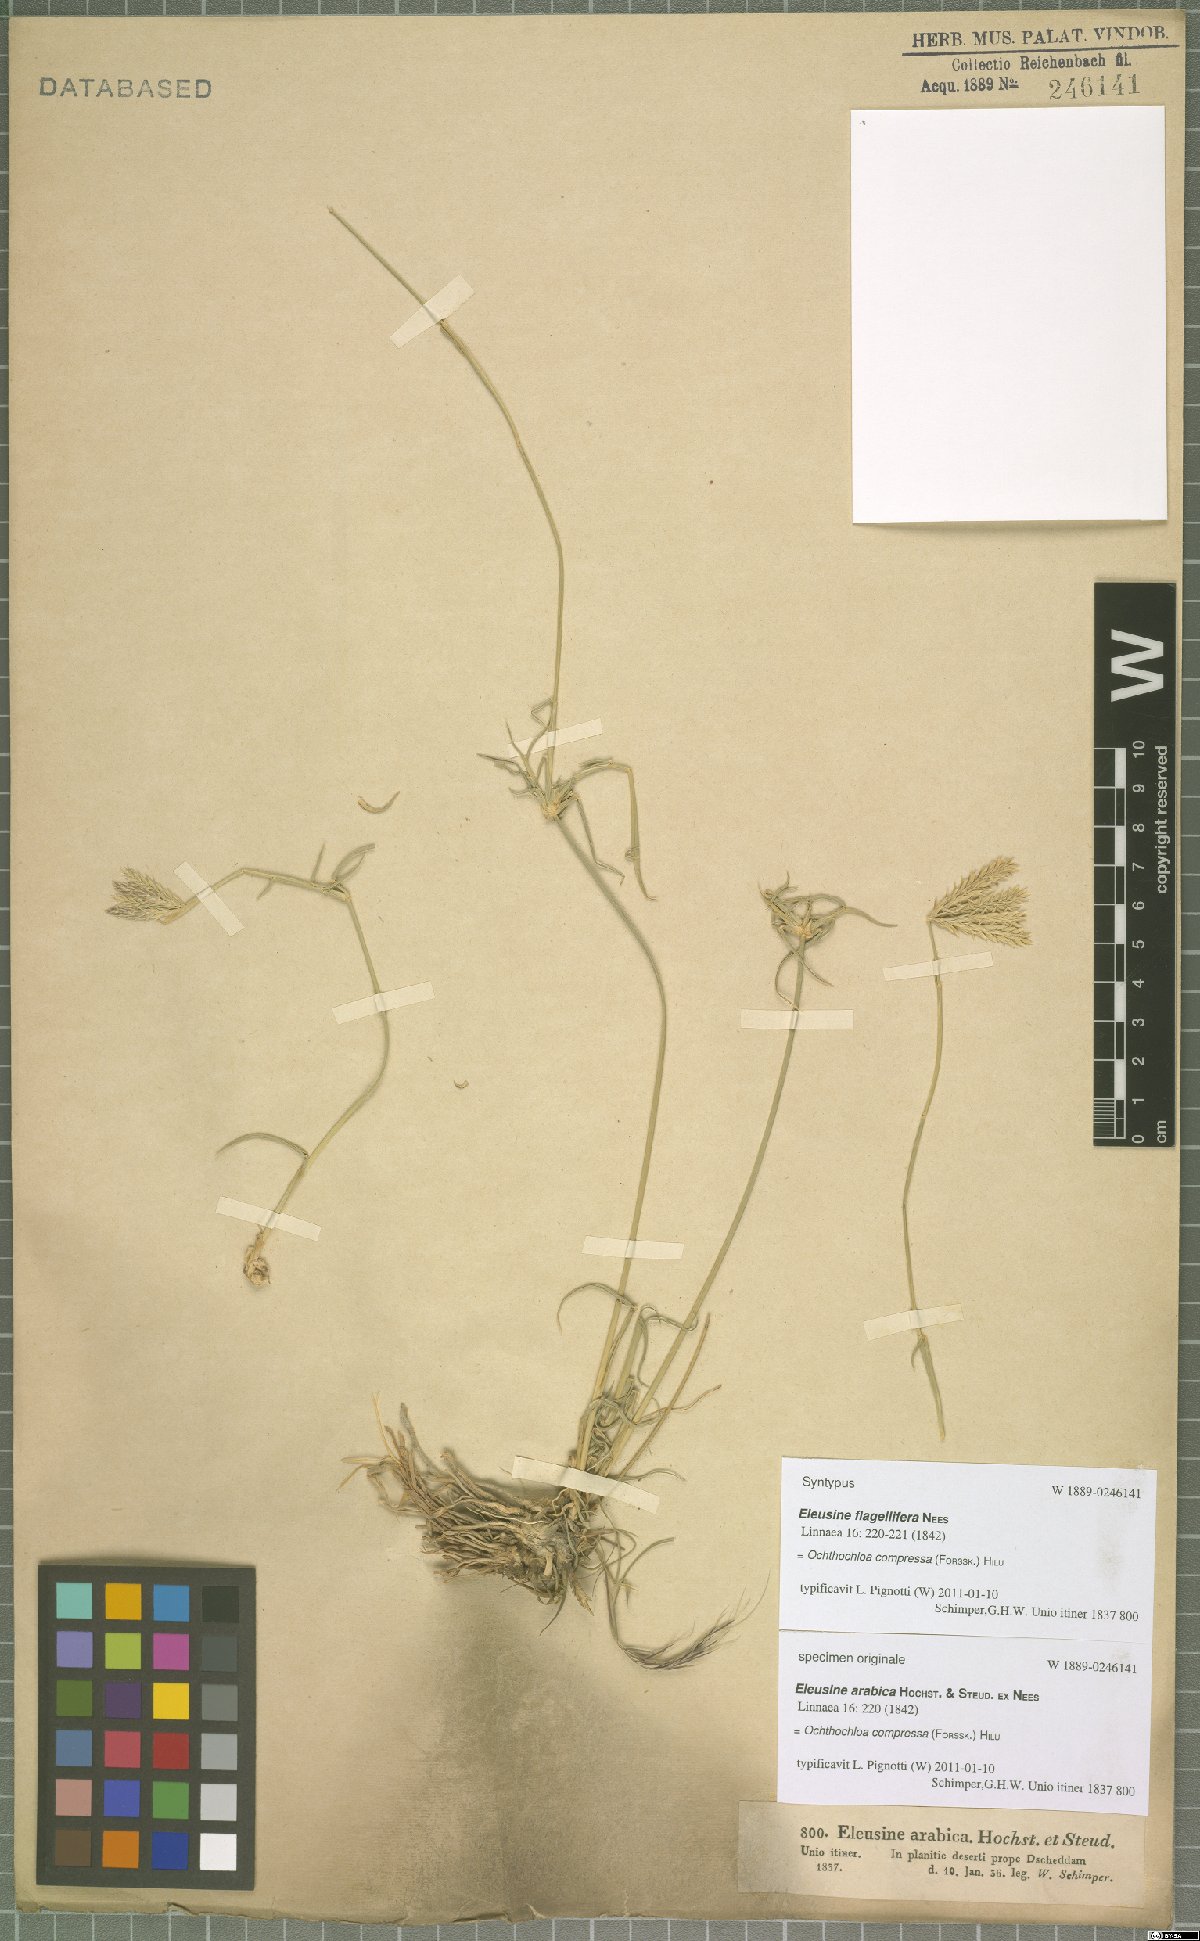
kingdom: Plantae
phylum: Tracheophyta
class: Liliopsida
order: Poales
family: Poaceae
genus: Chloris
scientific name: Chloris flagellifera
